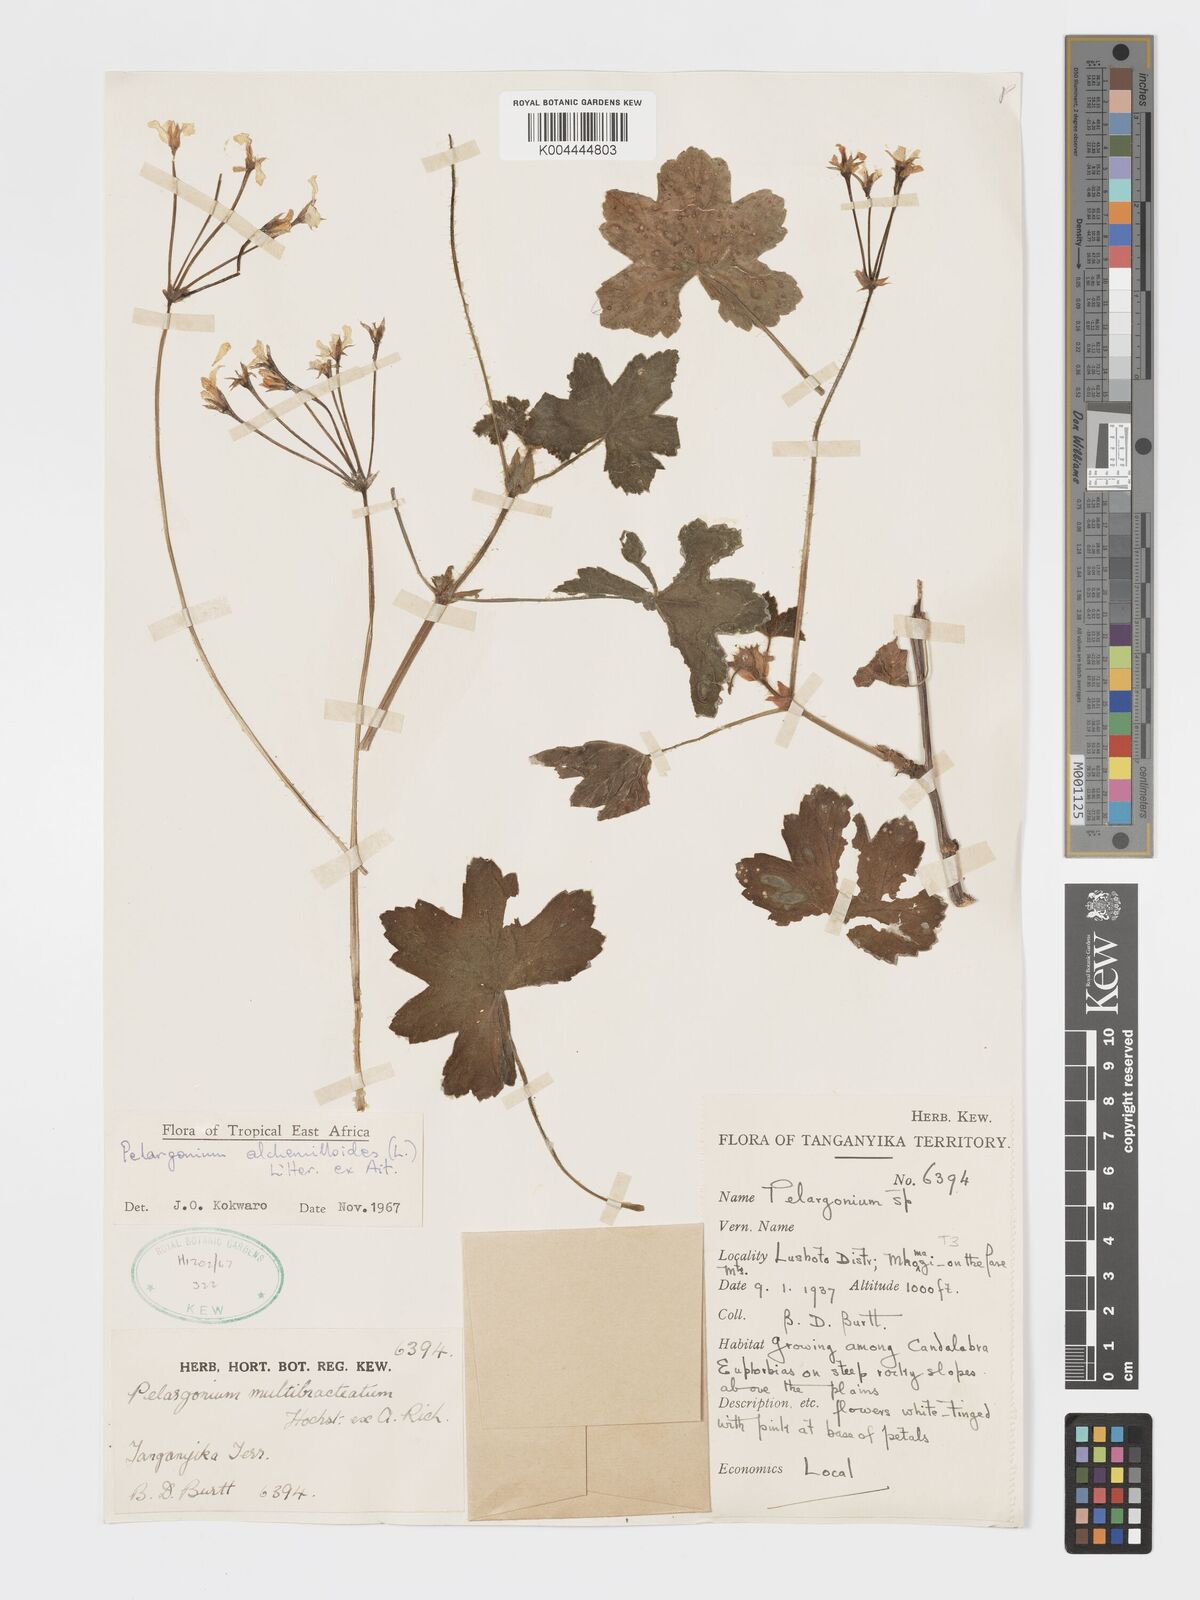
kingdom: Plantae
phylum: Tracheophyta
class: Magnoliopsida
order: Geraniales
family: Geraniaceae
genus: Pelargonium
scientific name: Pelargonium alchemilloides
